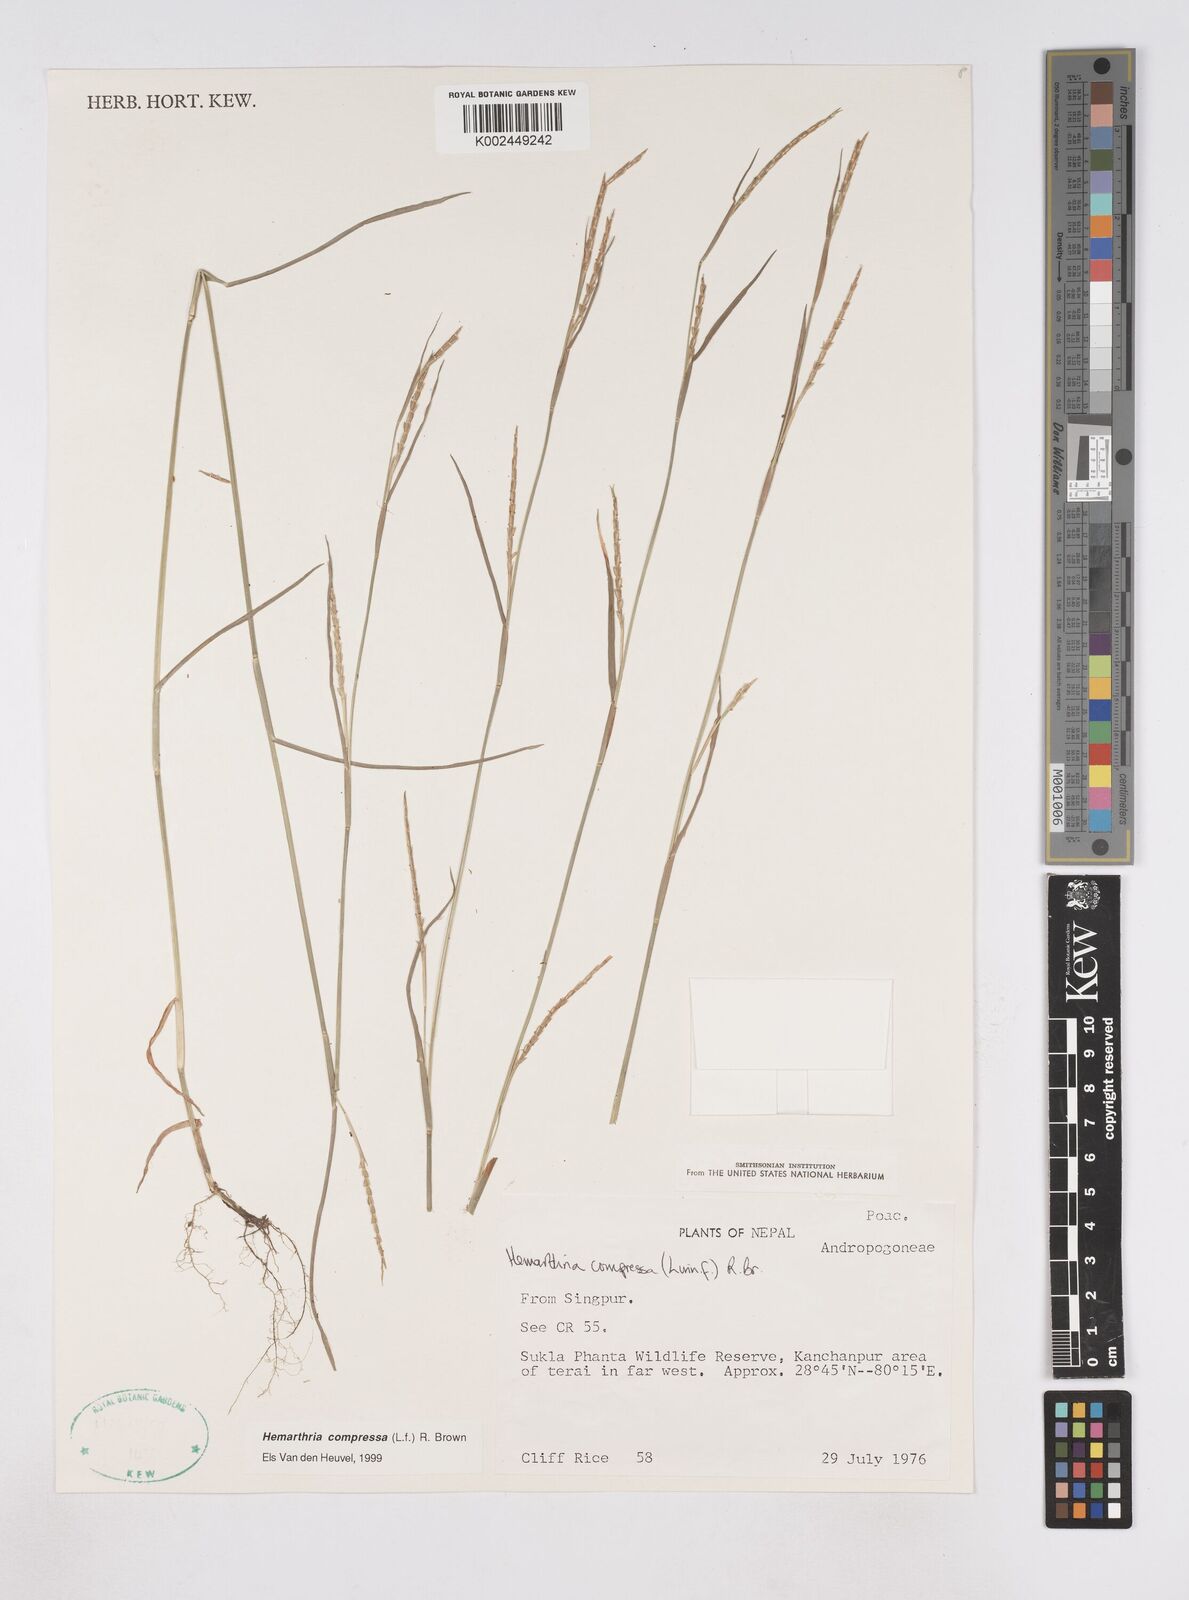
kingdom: Plantae
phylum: Tracheophyta
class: Liliopsida
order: Poales
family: Poaceae
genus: Hemarthria
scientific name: Hemarthria compressa
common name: Whip grass
